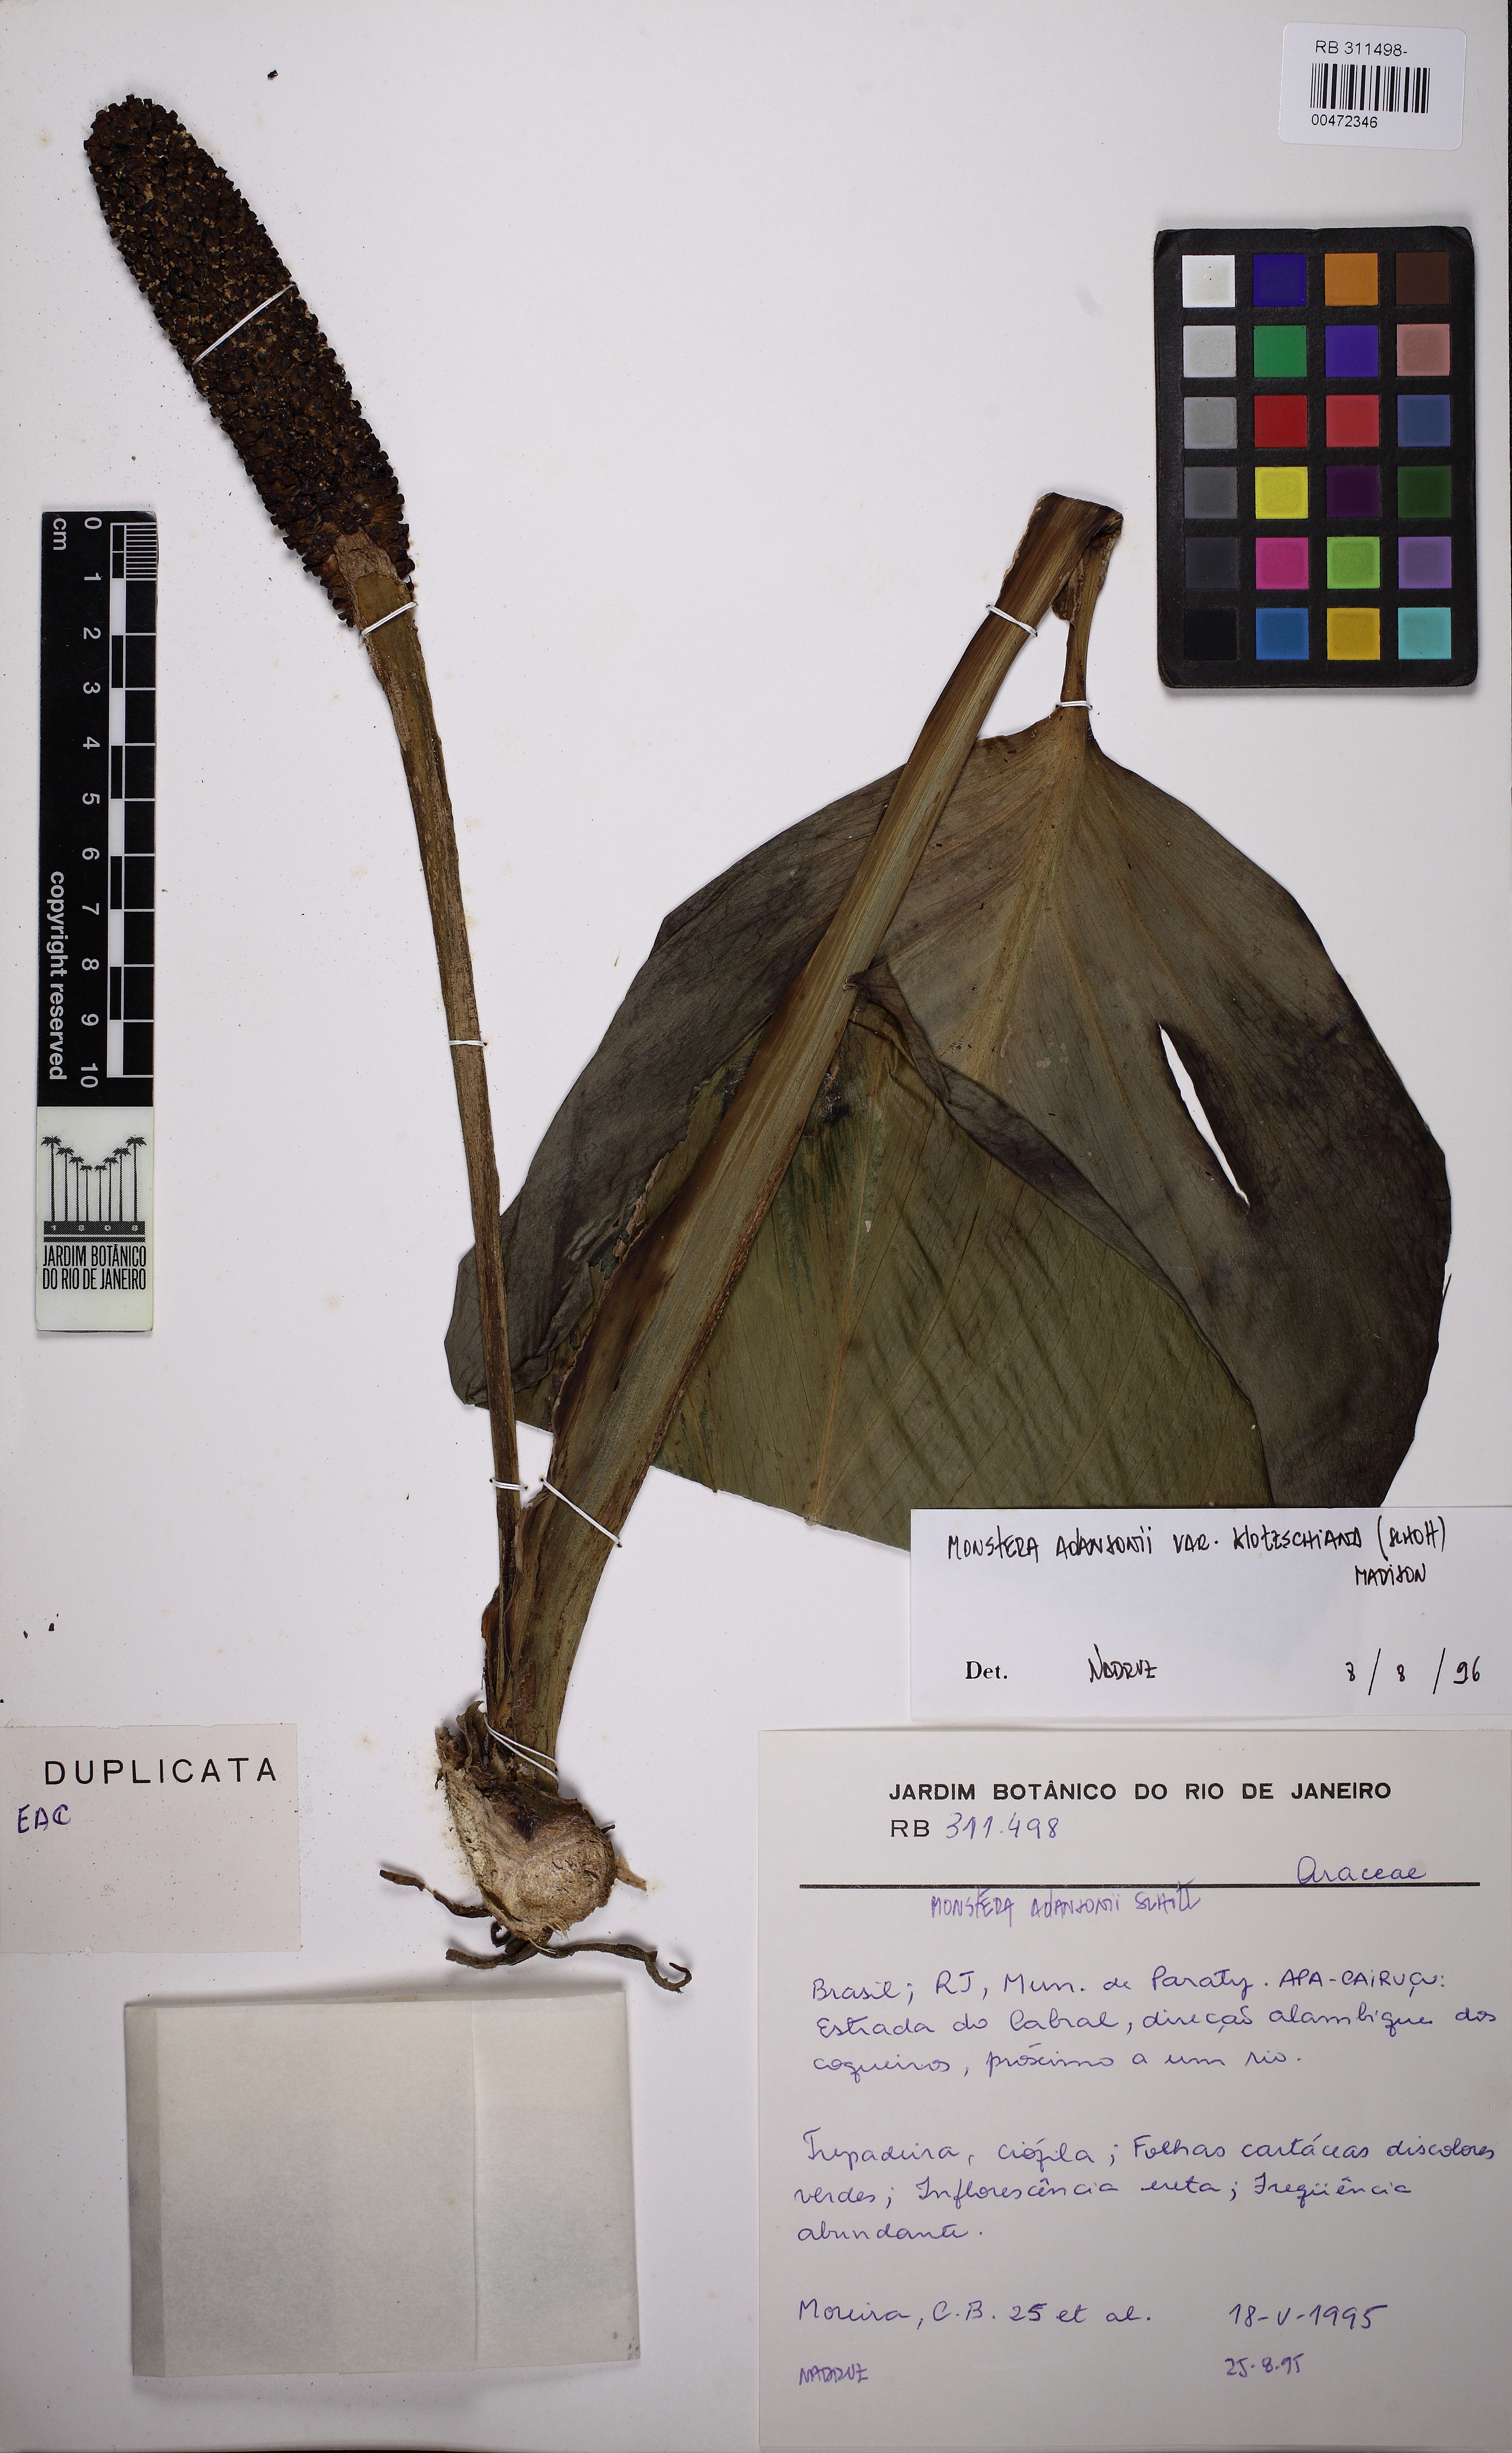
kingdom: Plantae
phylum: Tracheophyta
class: Liliopsida
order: Alismatales
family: Araceae
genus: Monstera
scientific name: Monstera adansonii
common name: Tarovine
